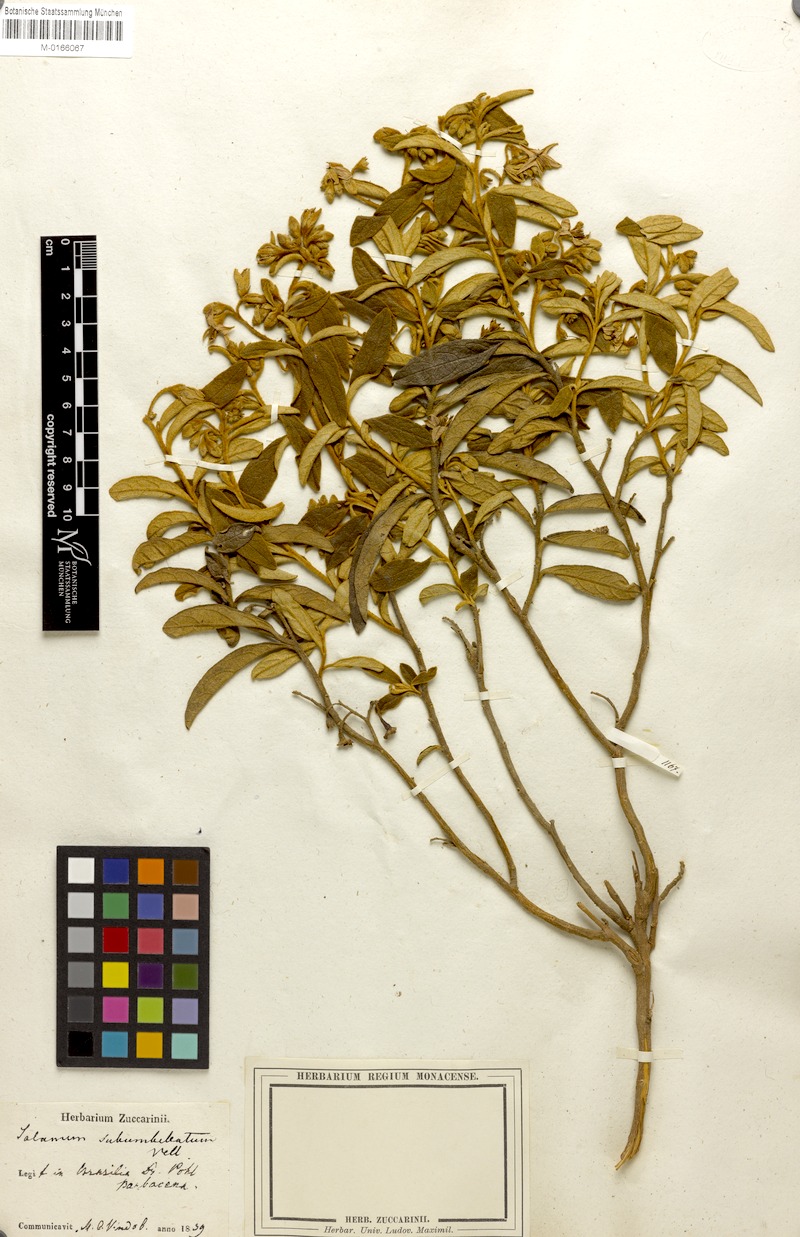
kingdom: Plantae
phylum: Tracheophyta
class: Magnoliopsida
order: Solanales
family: Solanaceae
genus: Solanum
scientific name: Solanum subumbellatum
